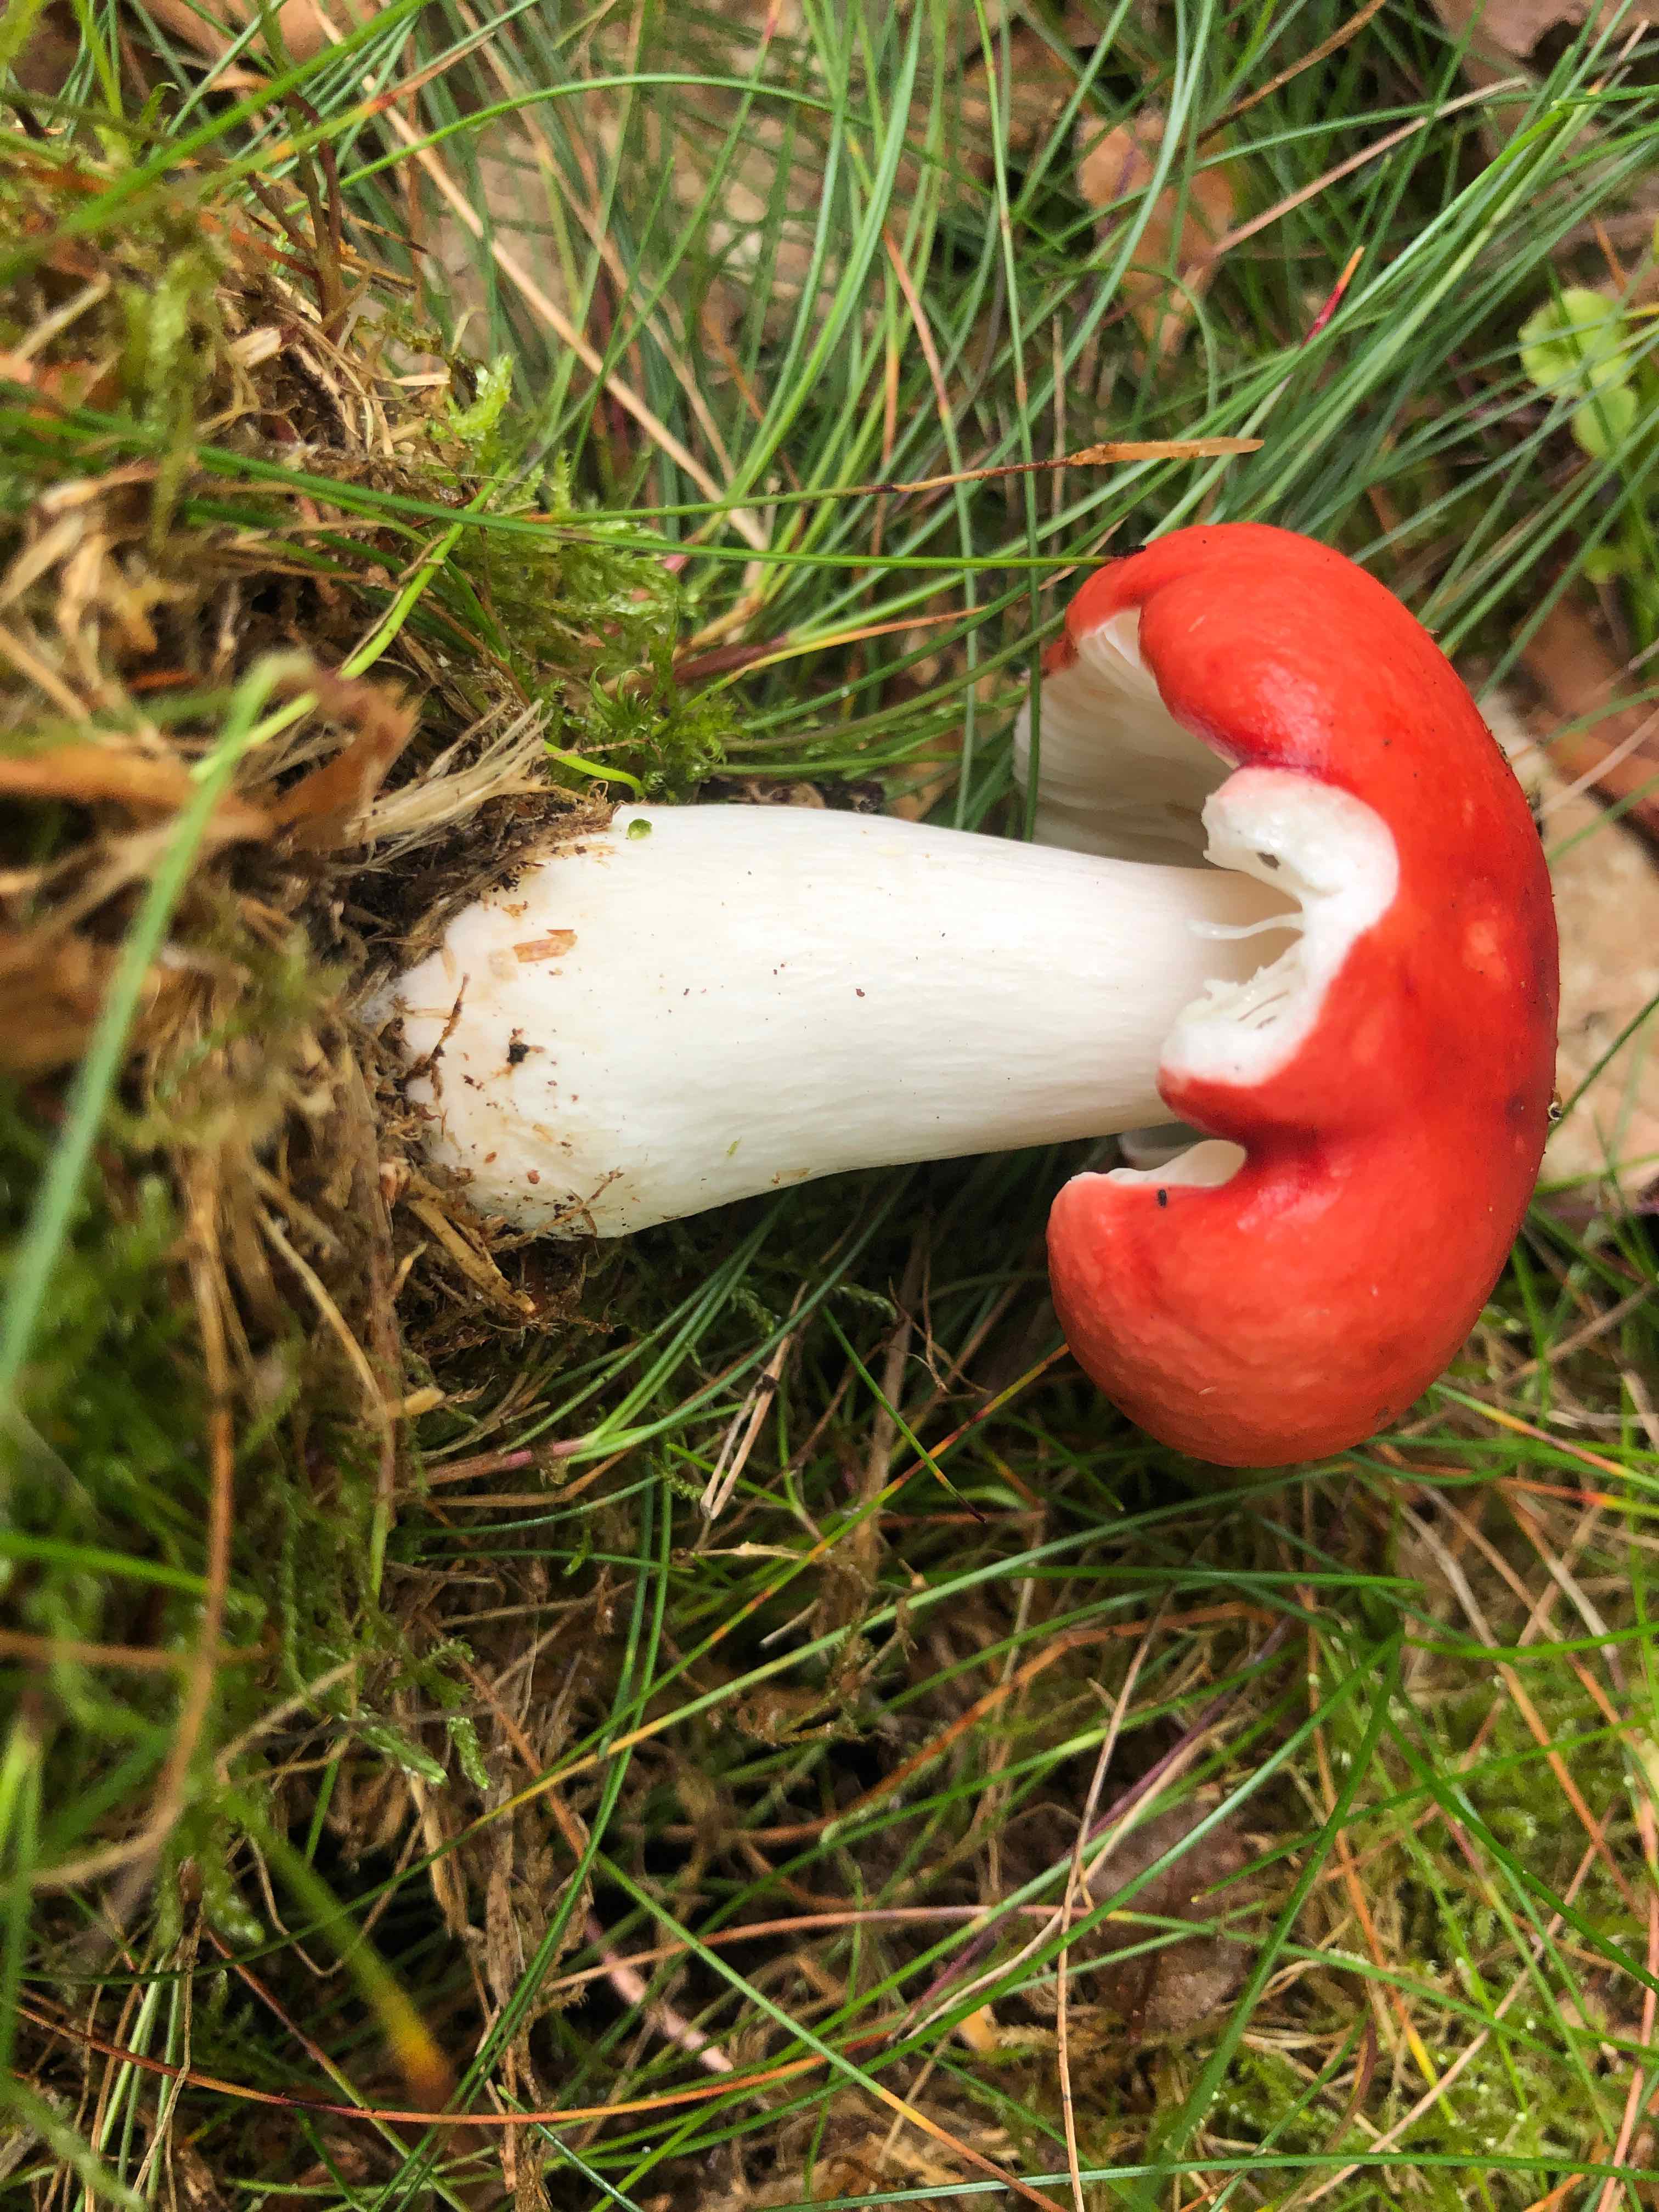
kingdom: Fungi
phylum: Basidiomycota
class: Agaricomycetes
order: Russulales
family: Russulaceae
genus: Russula
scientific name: Russula
